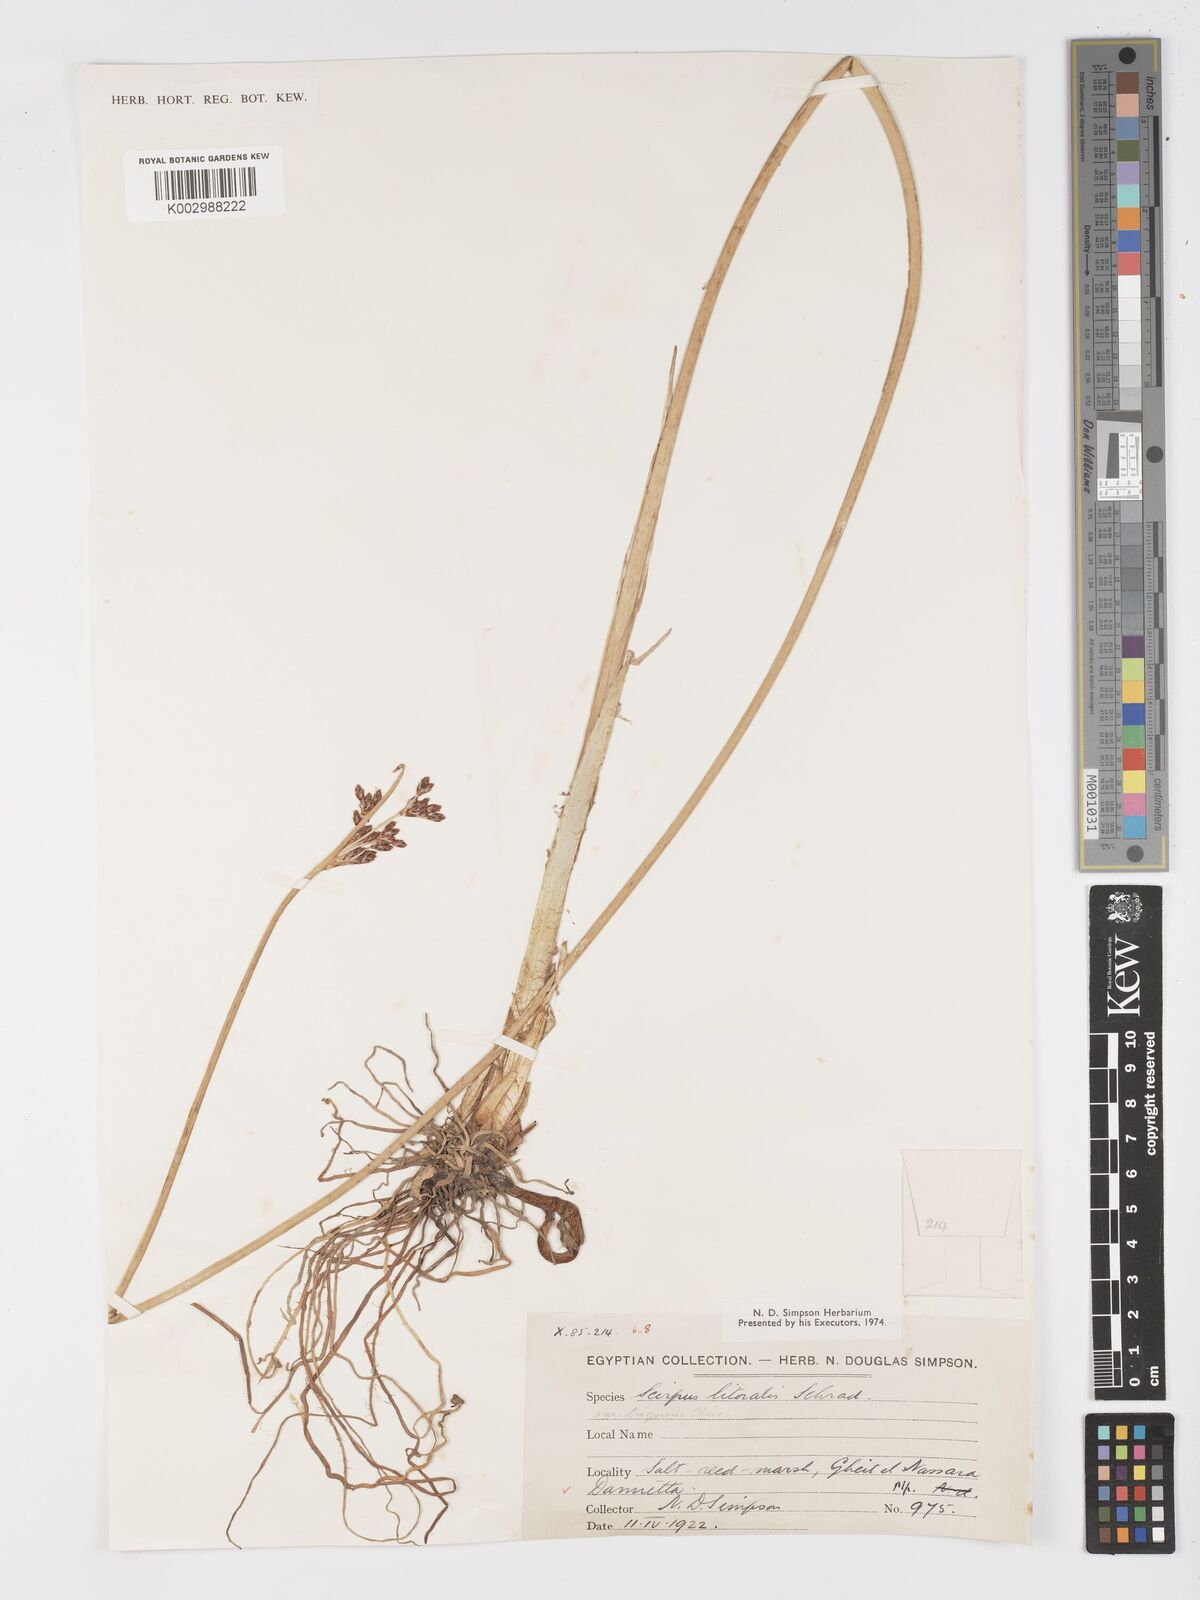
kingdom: Plantae
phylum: Tracheophyta
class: Liliopsida
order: Poales
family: Cyperaceae
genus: Schoenoplectus
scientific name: Schoenoplectus litoralis
